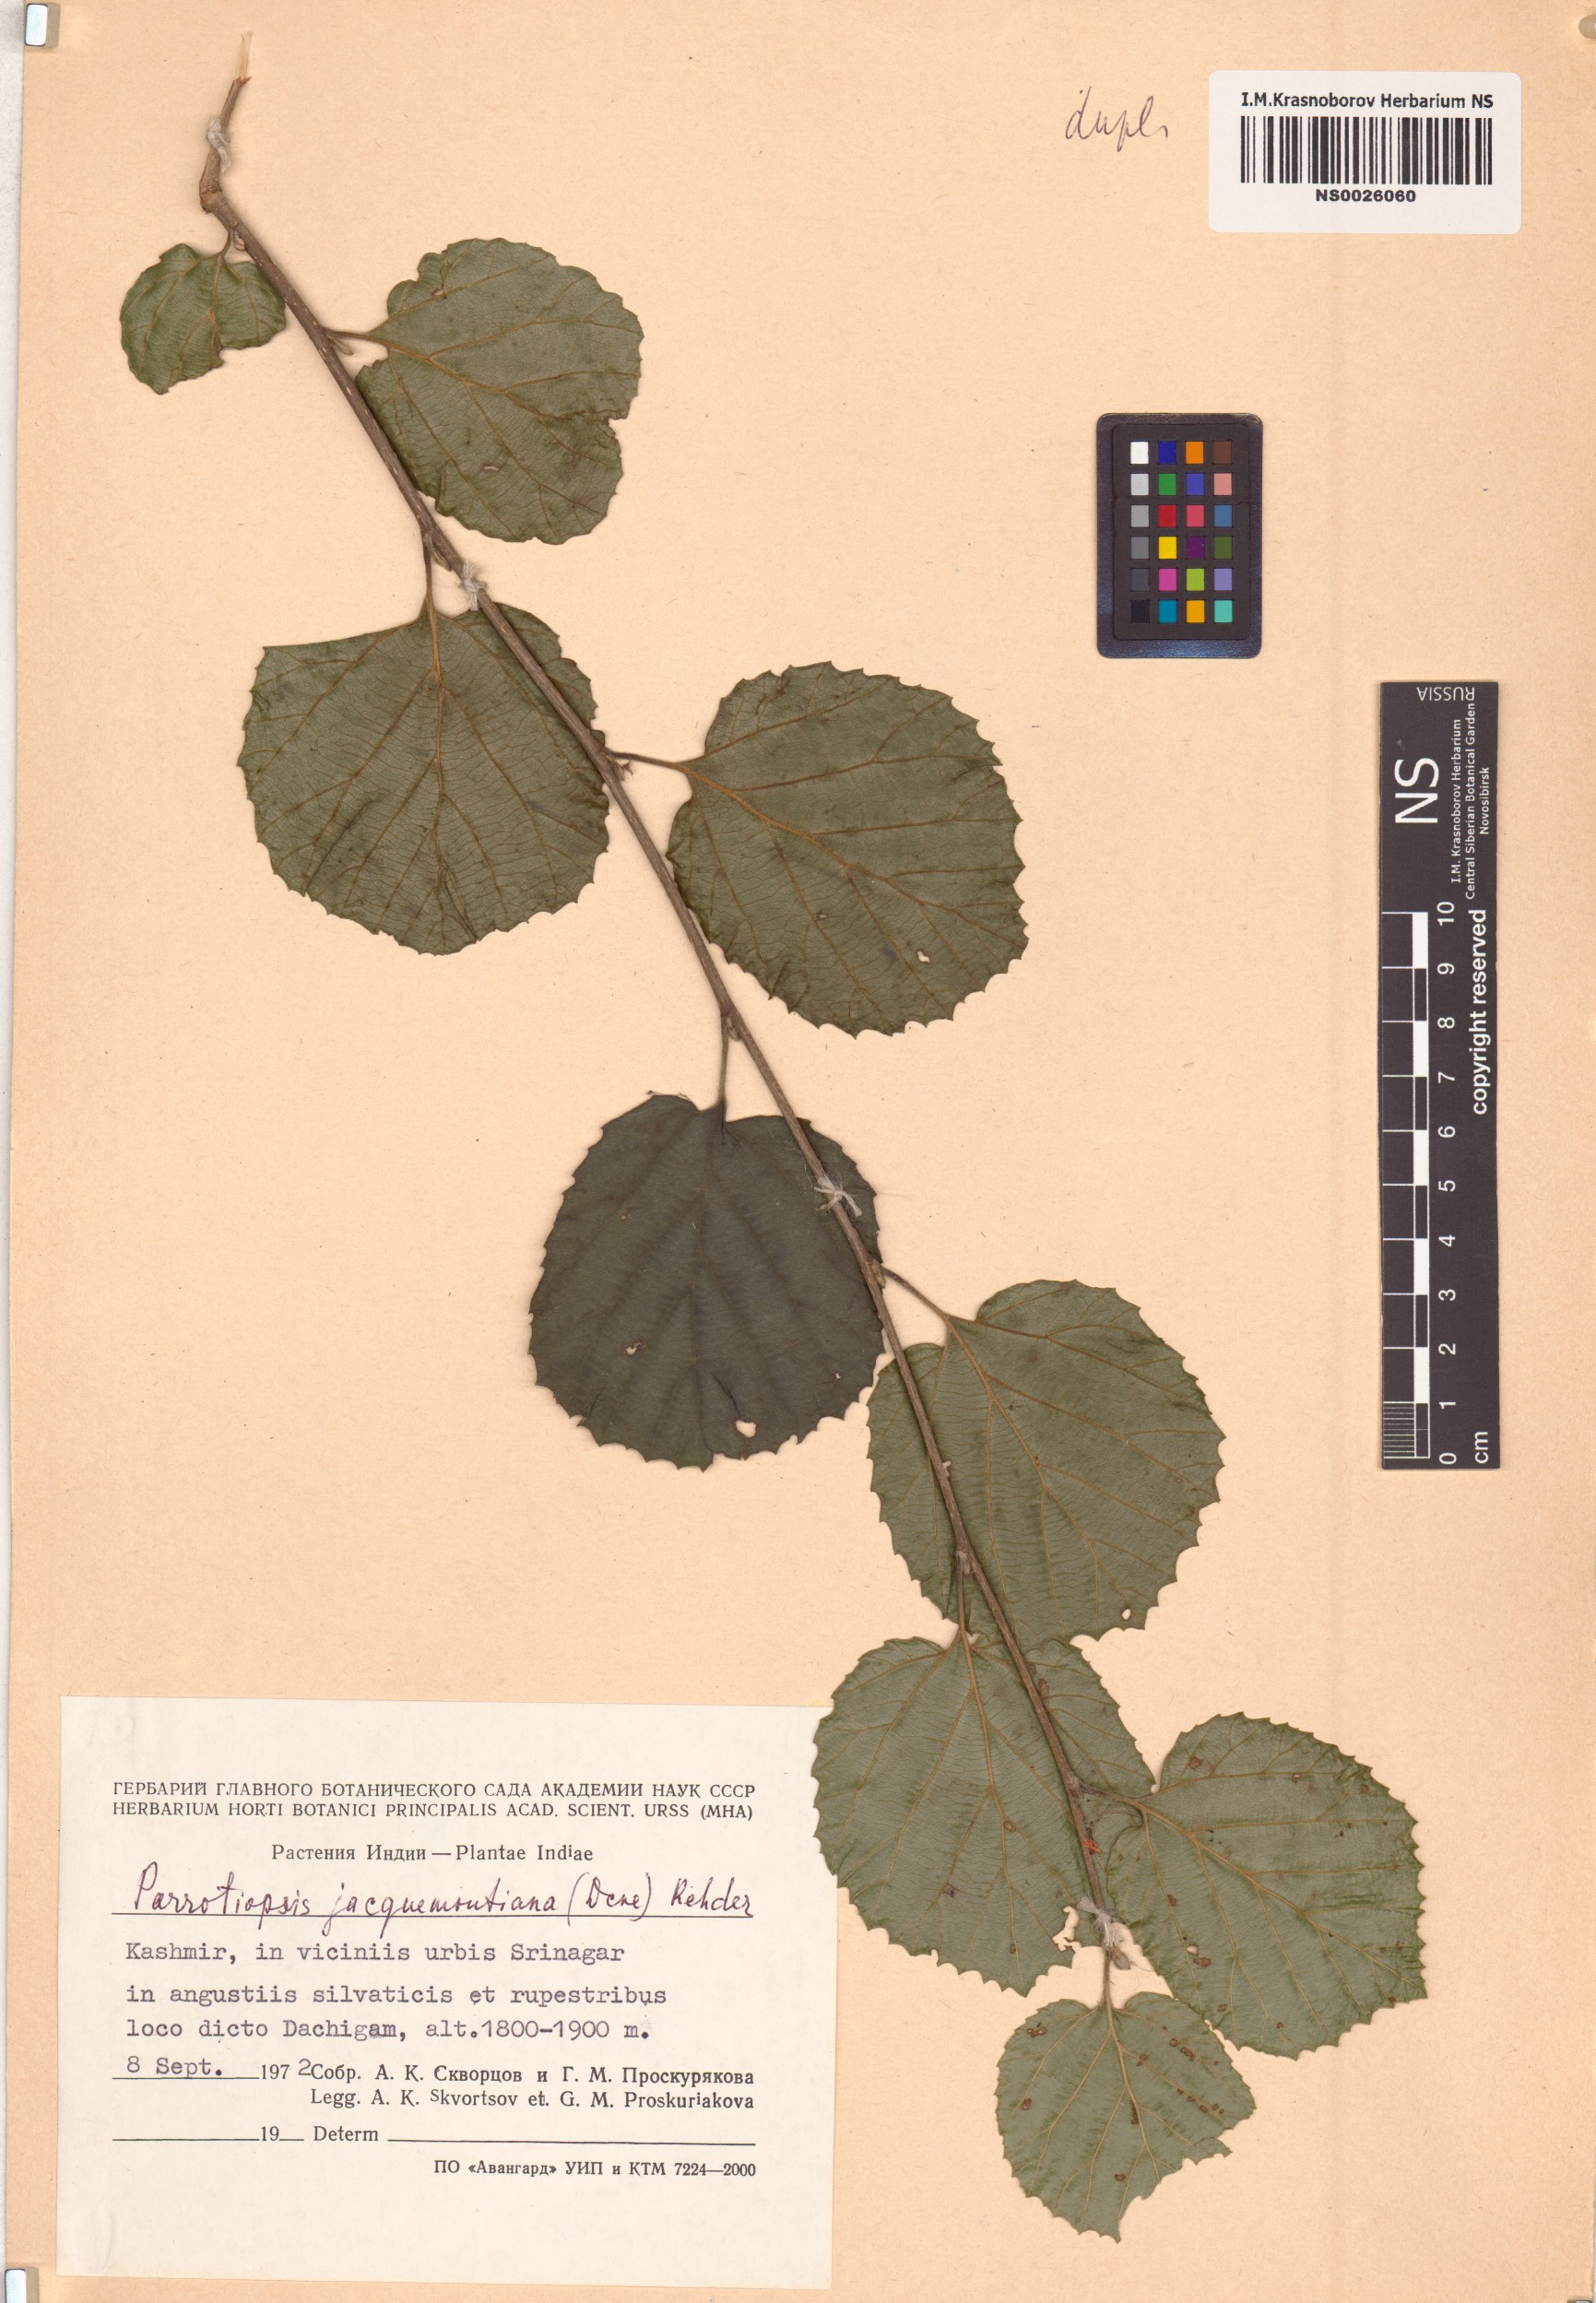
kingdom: Plantae
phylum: Tracheophyta
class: Magnoliopsida
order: Saxifragales
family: Hamamelidaceae
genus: Parrotiopsis
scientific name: Parrotiopsis jacquemontiana
